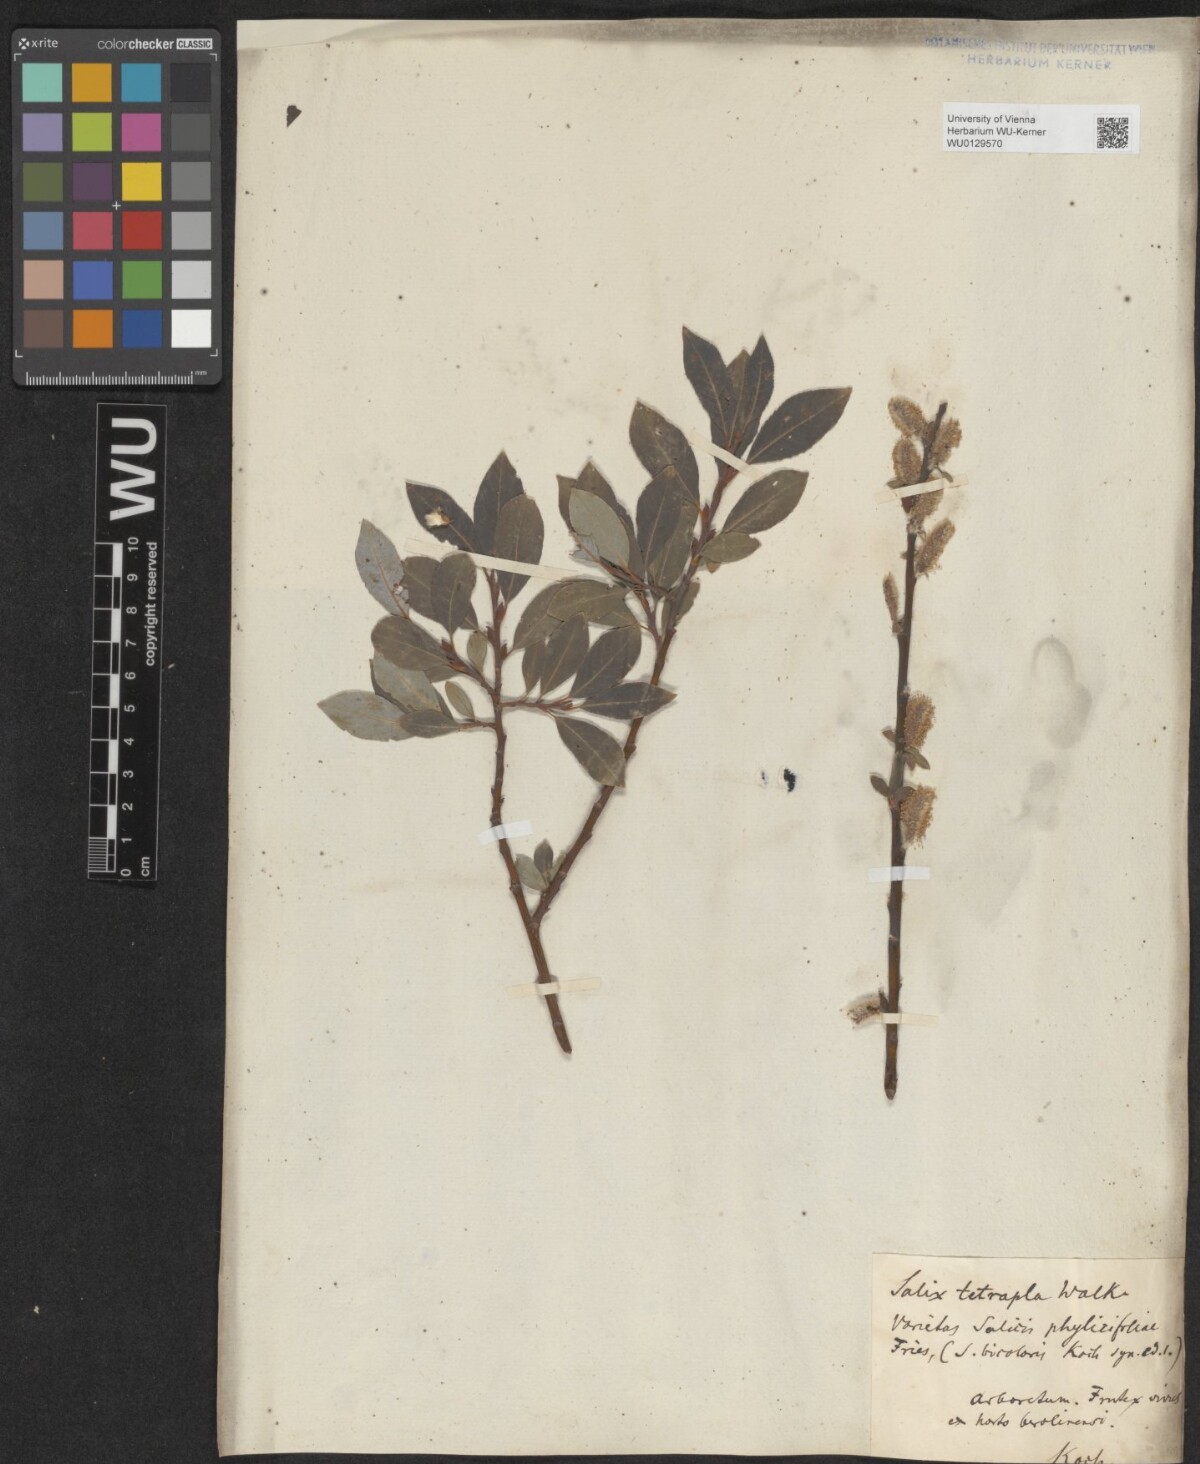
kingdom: Plantae
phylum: Tracheophyta
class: Magnoliopsida
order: Malpighiales
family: Salicaceae
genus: Salix
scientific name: Salix bicolor
